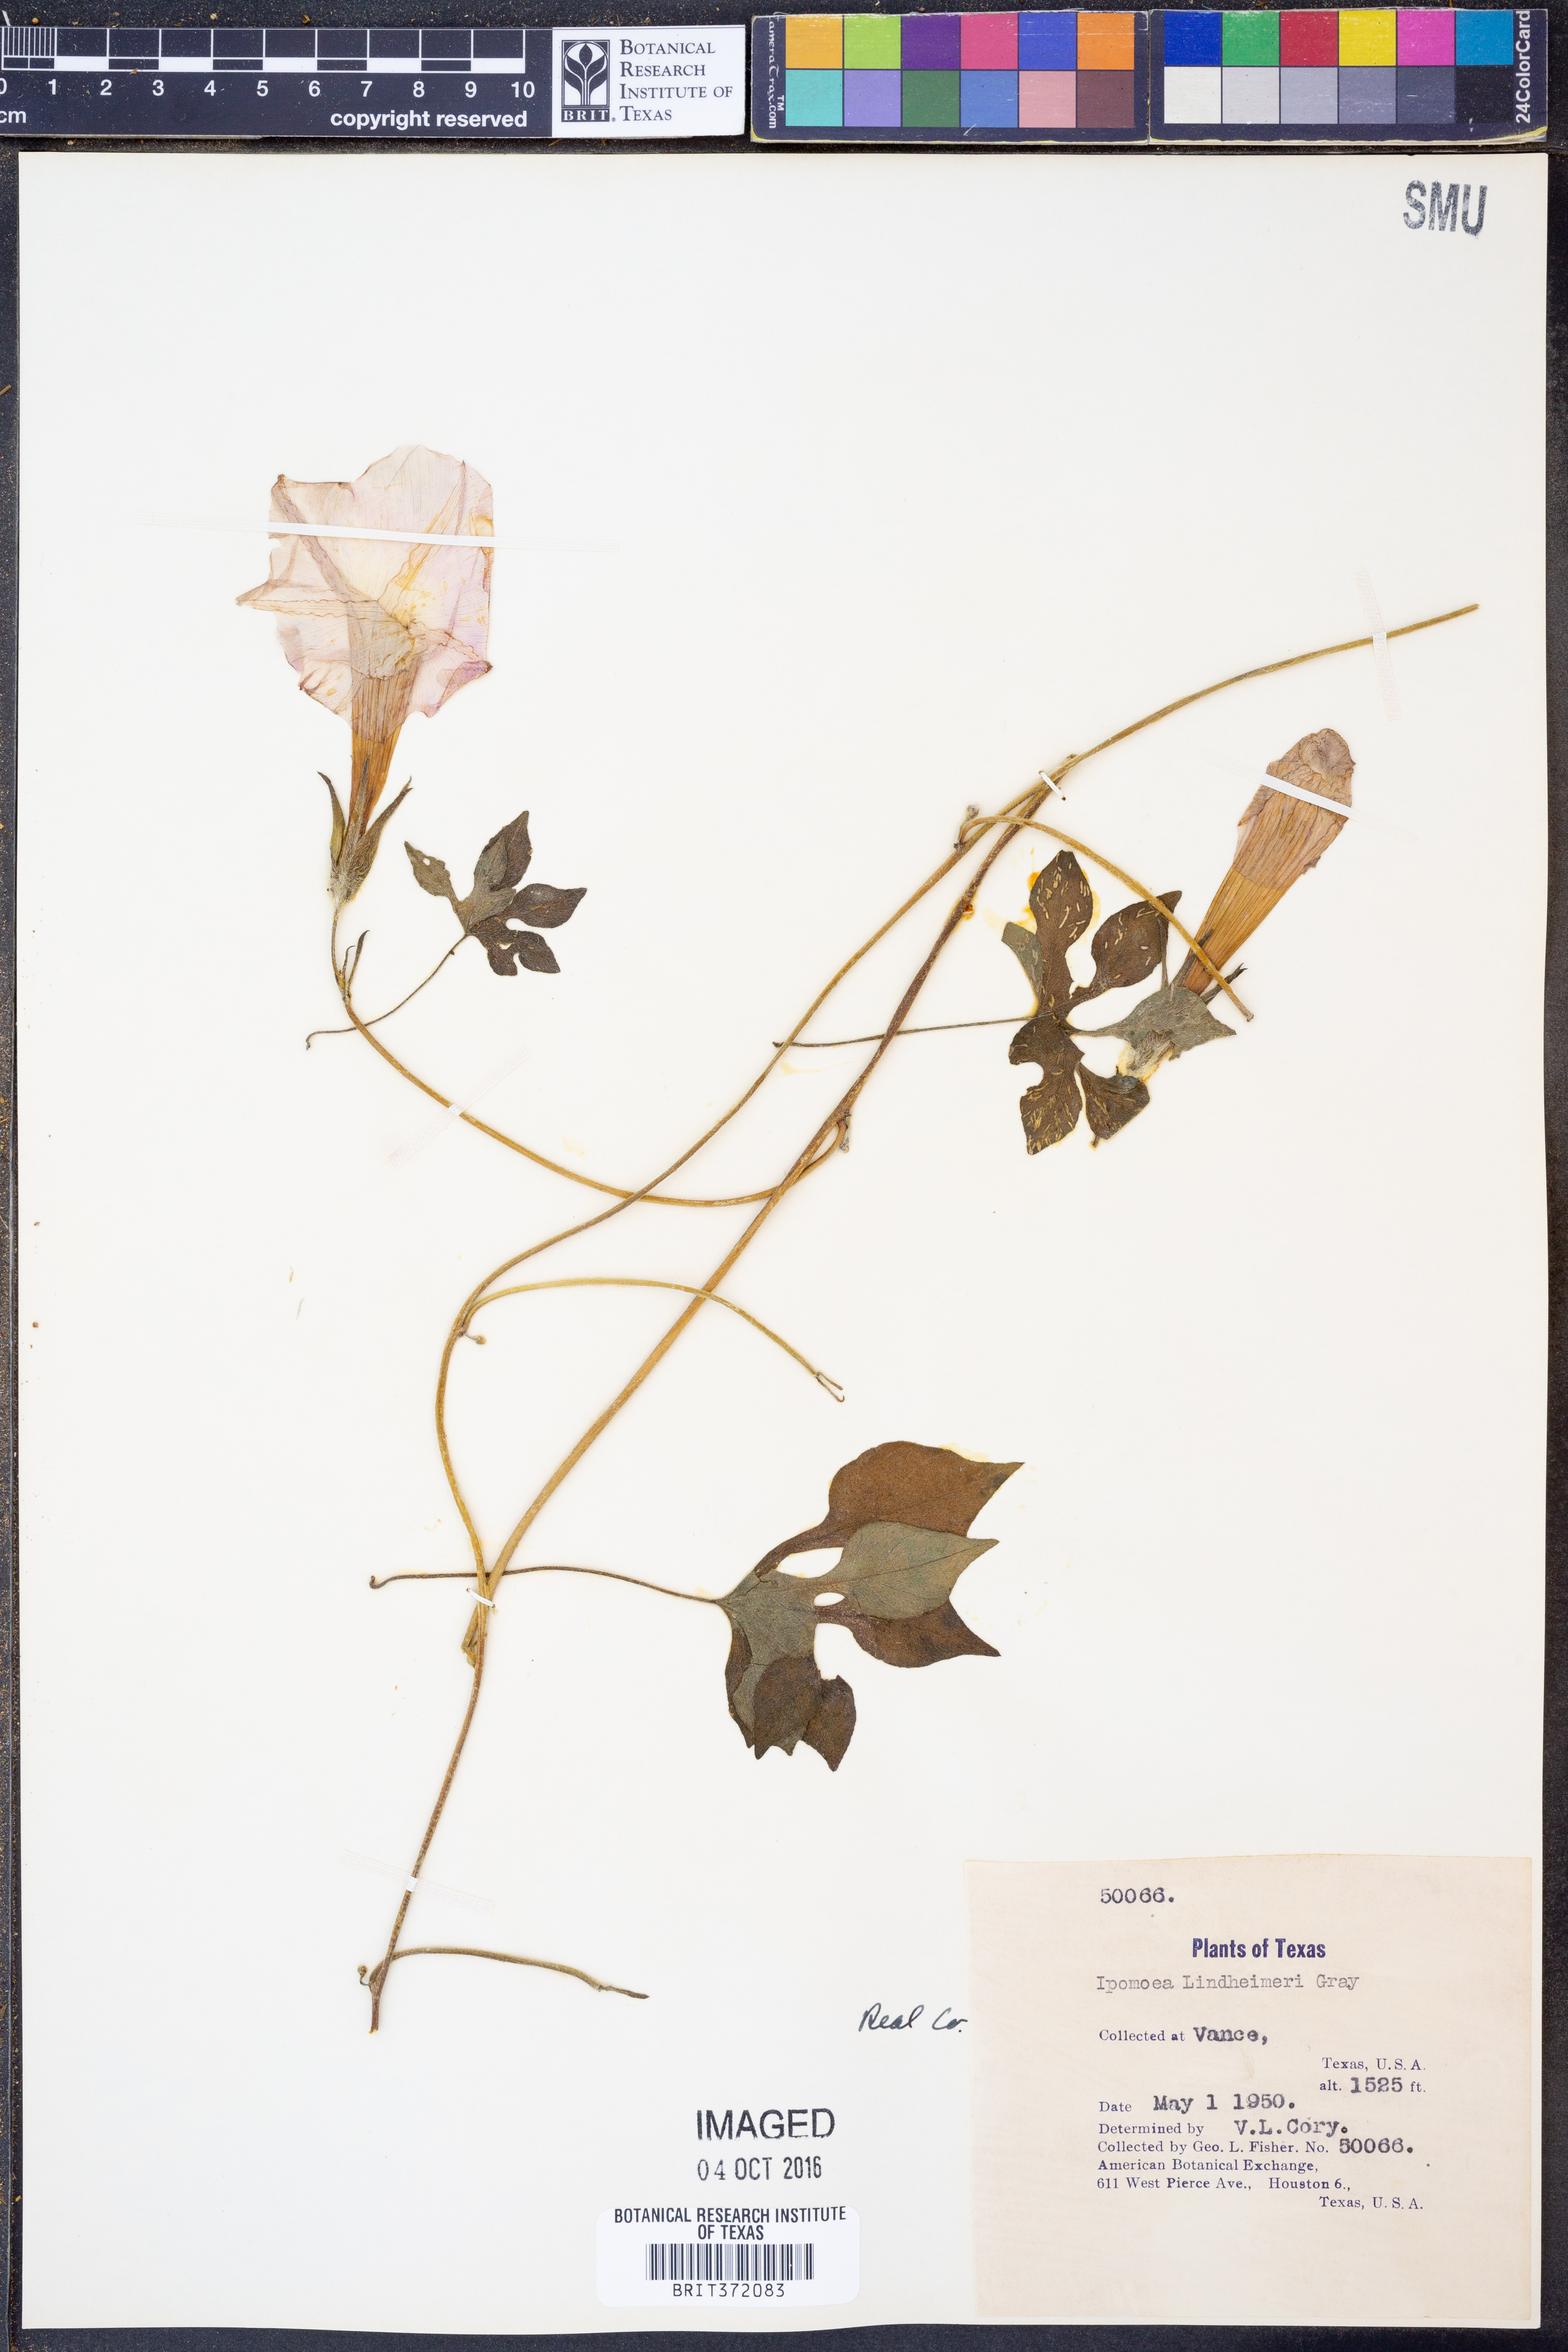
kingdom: Plantae
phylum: Tracheophyta
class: Magnoliopsida
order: Solanales
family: Convolvulaceae
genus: Ipomoea
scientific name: Ipomoea lindheimeri
